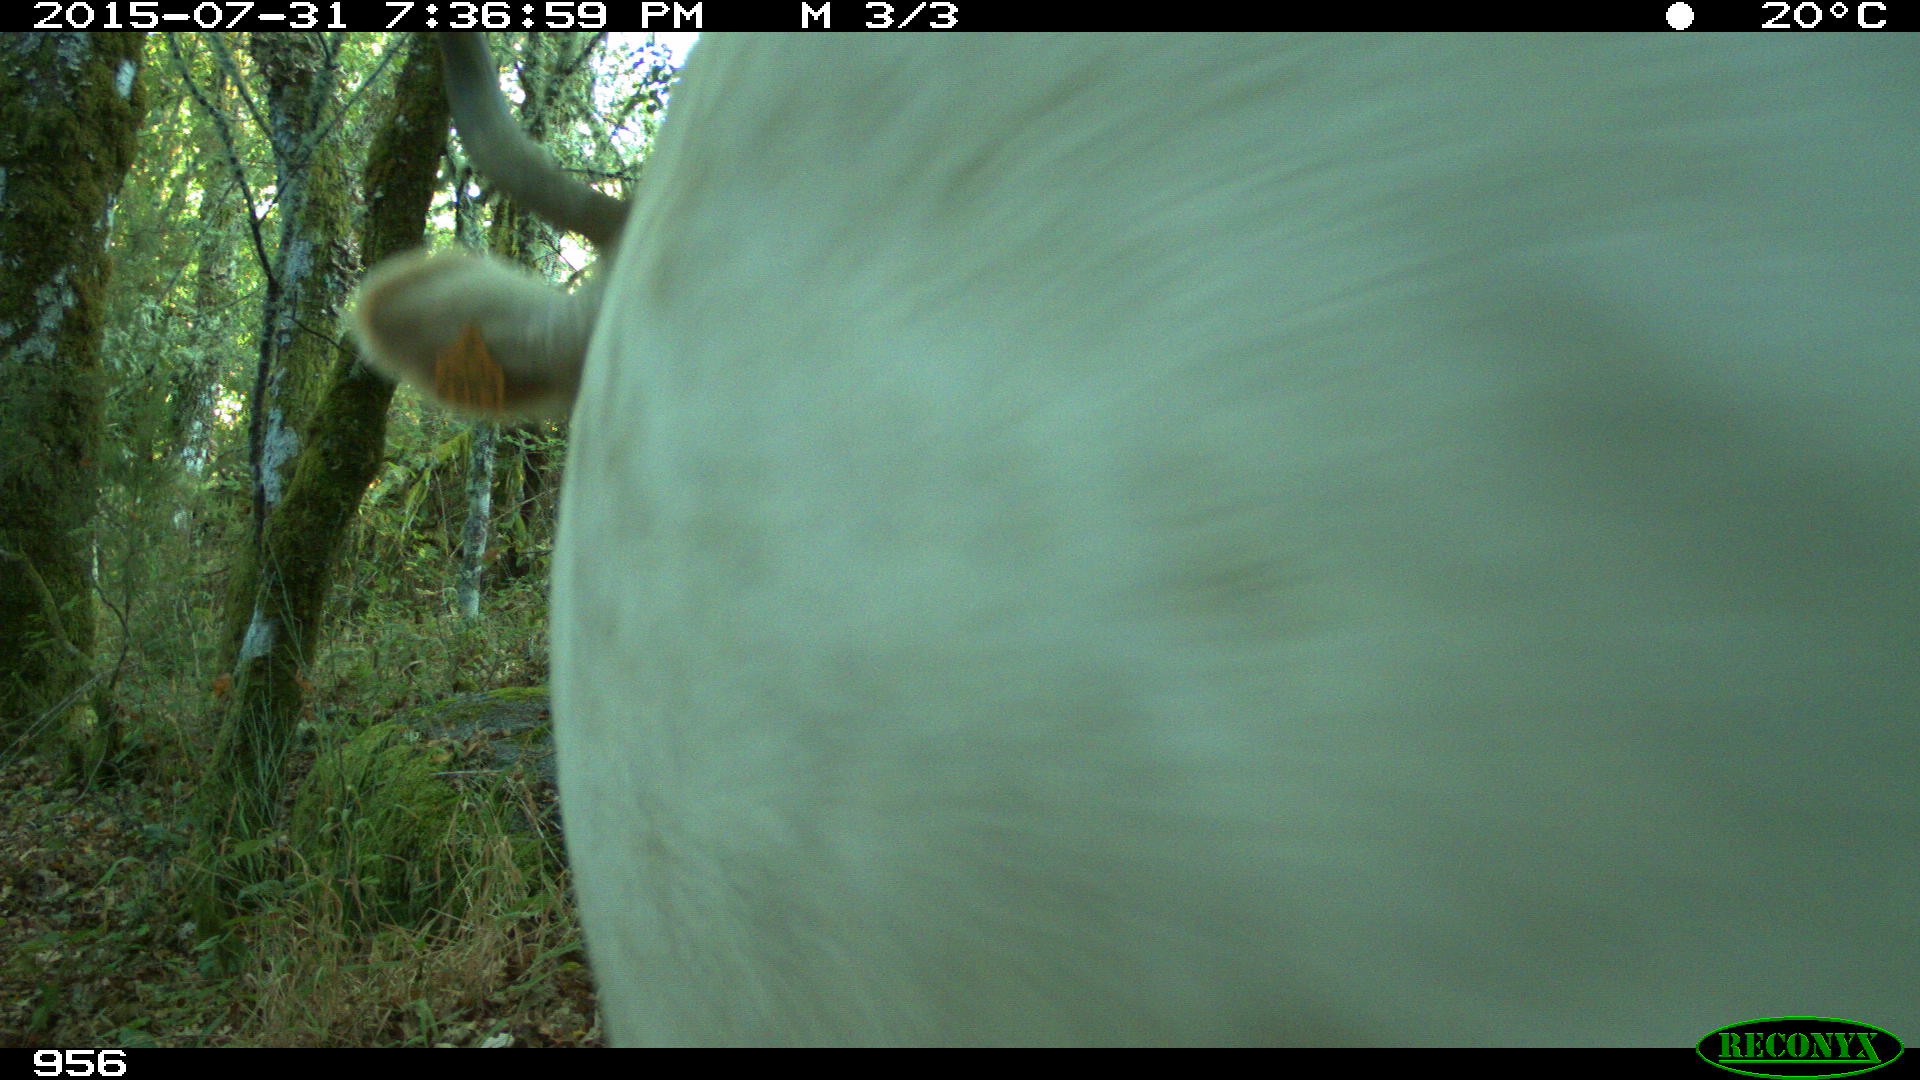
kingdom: Animalia
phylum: Chordata
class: Mammalia
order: Artiodactyla
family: Bovidae
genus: Bos
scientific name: Bos taurus
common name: Domesticated cattle
